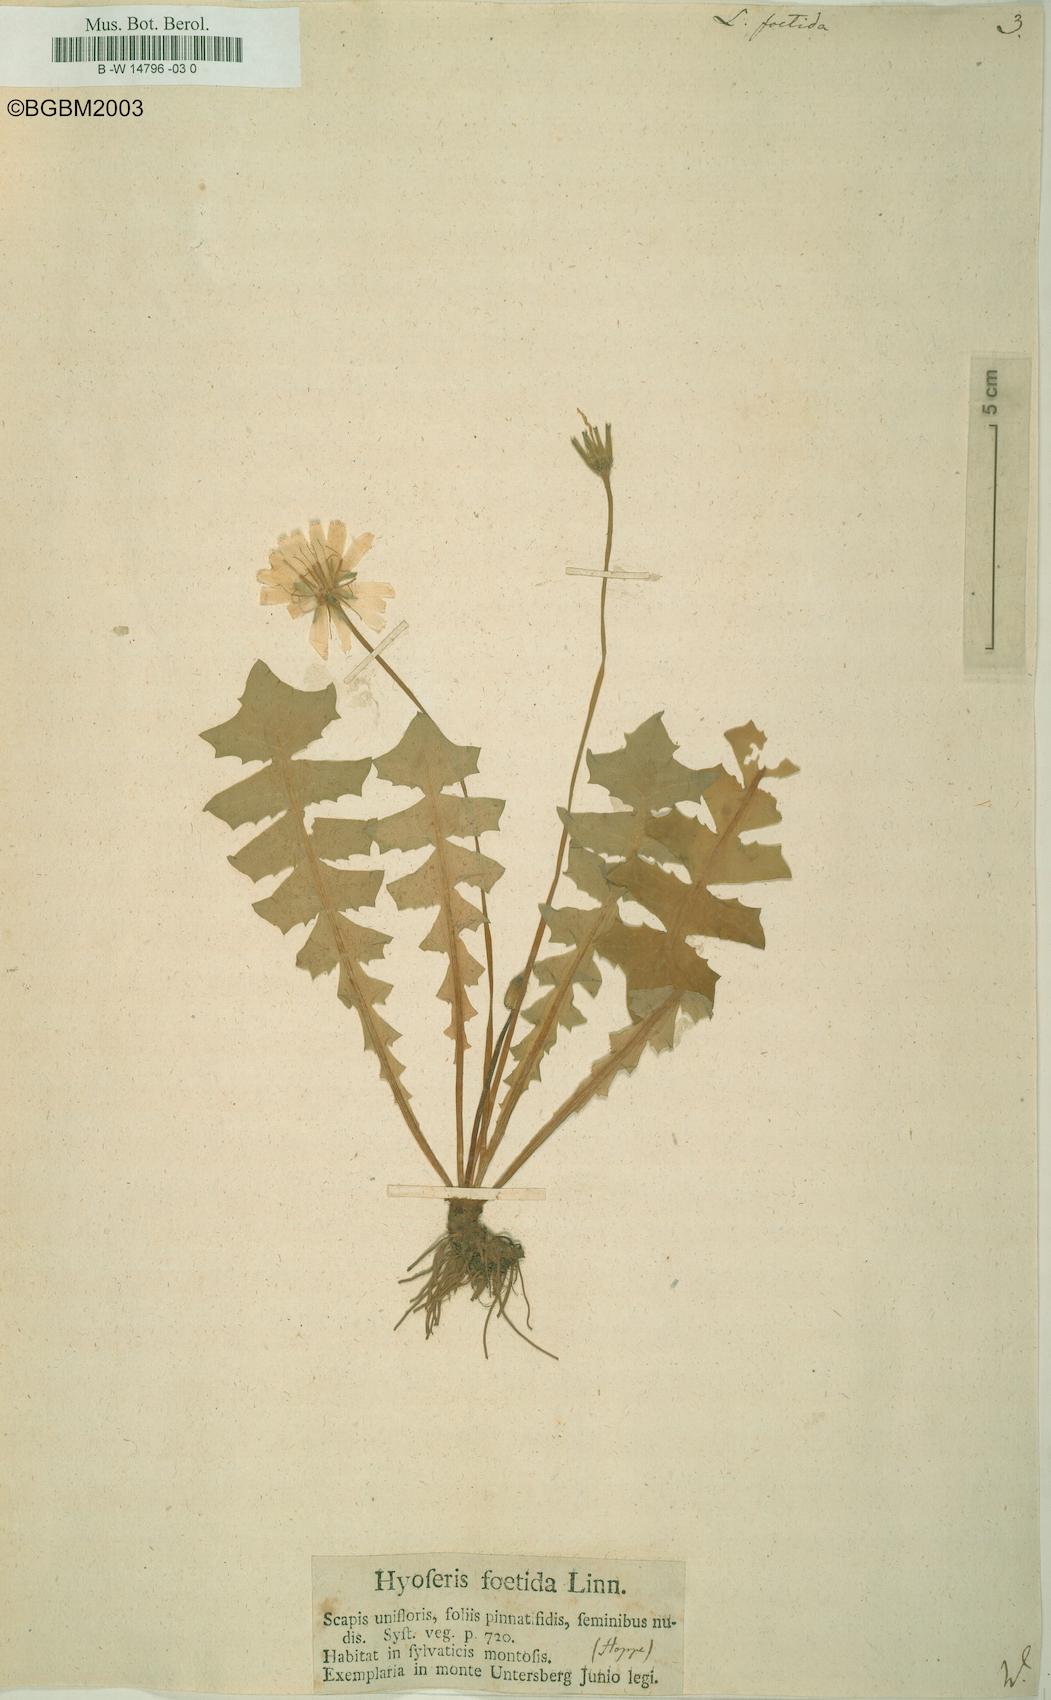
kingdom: Plantae
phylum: Tracheophyta
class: Magnoliopsida
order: Asterales
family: Asteraceae
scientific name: Asteraceae
